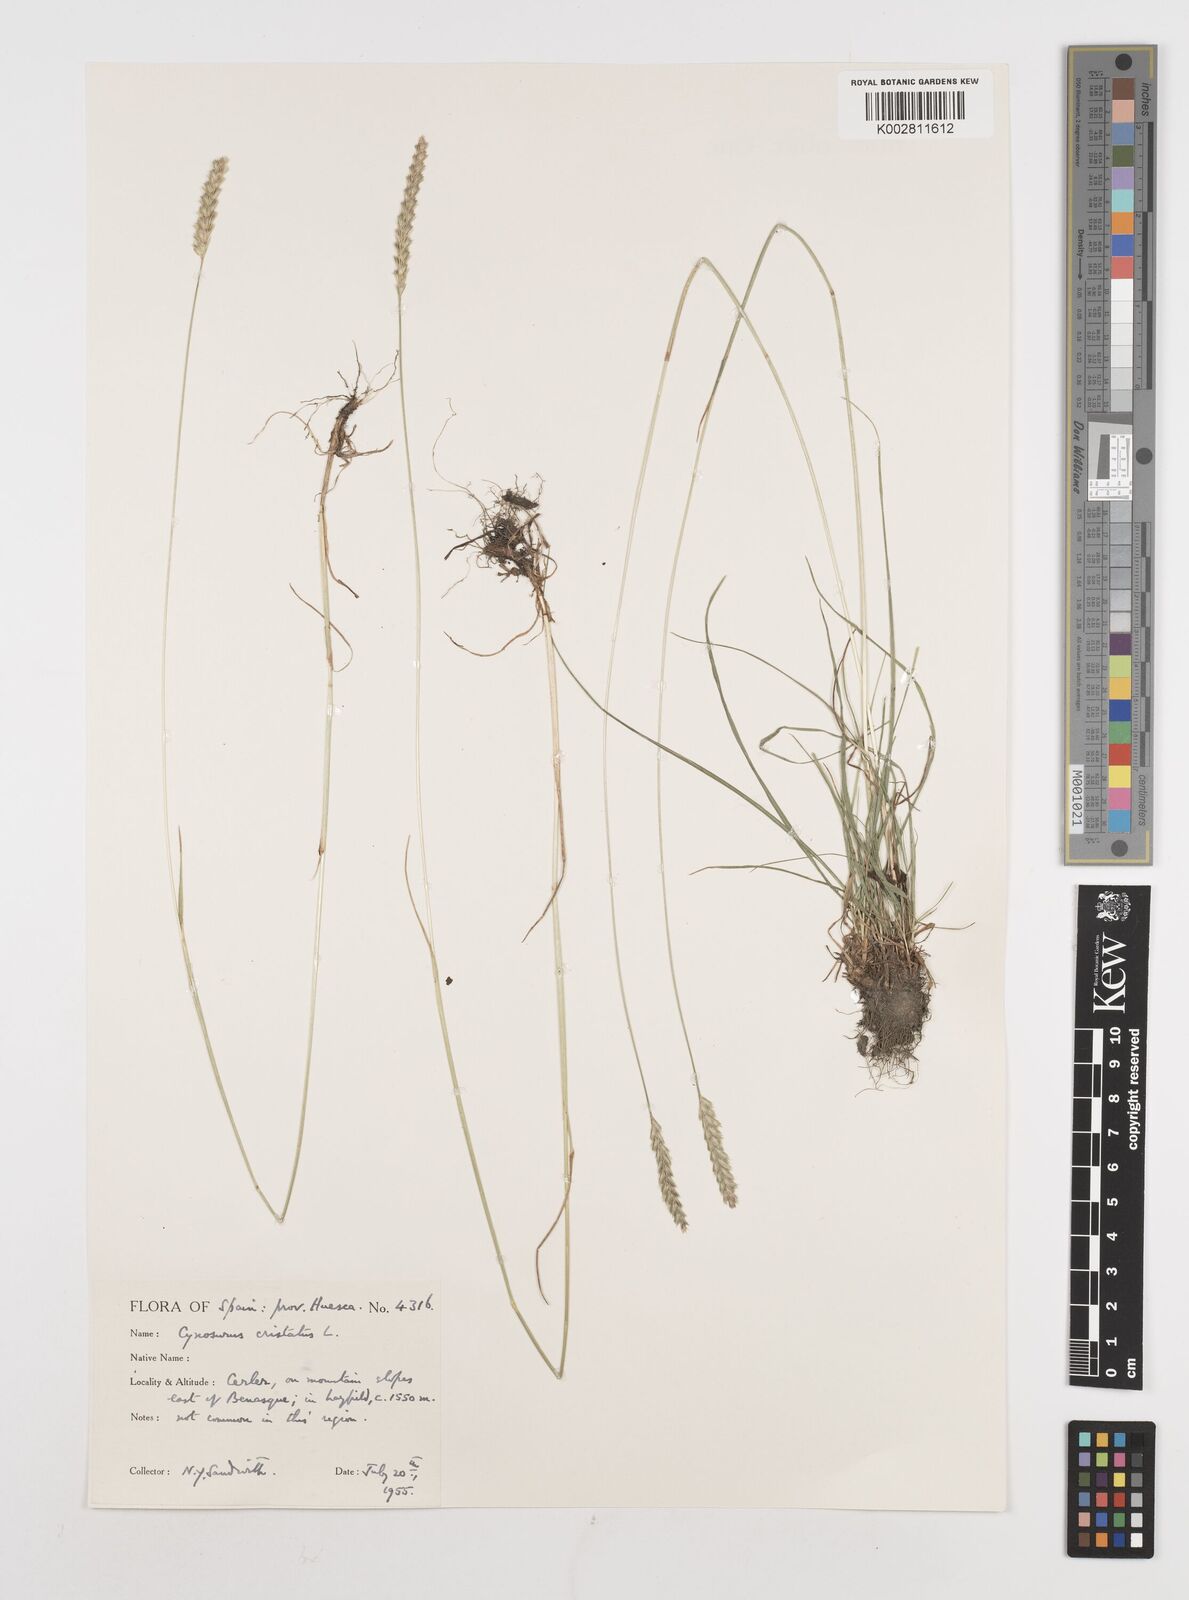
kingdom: Plantae
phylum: Tracheophyta
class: Liliopsida
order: Poales
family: Poaceae
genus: Cynosurus
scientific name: Cynosurus cristatus
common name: Crested dog's-tail
